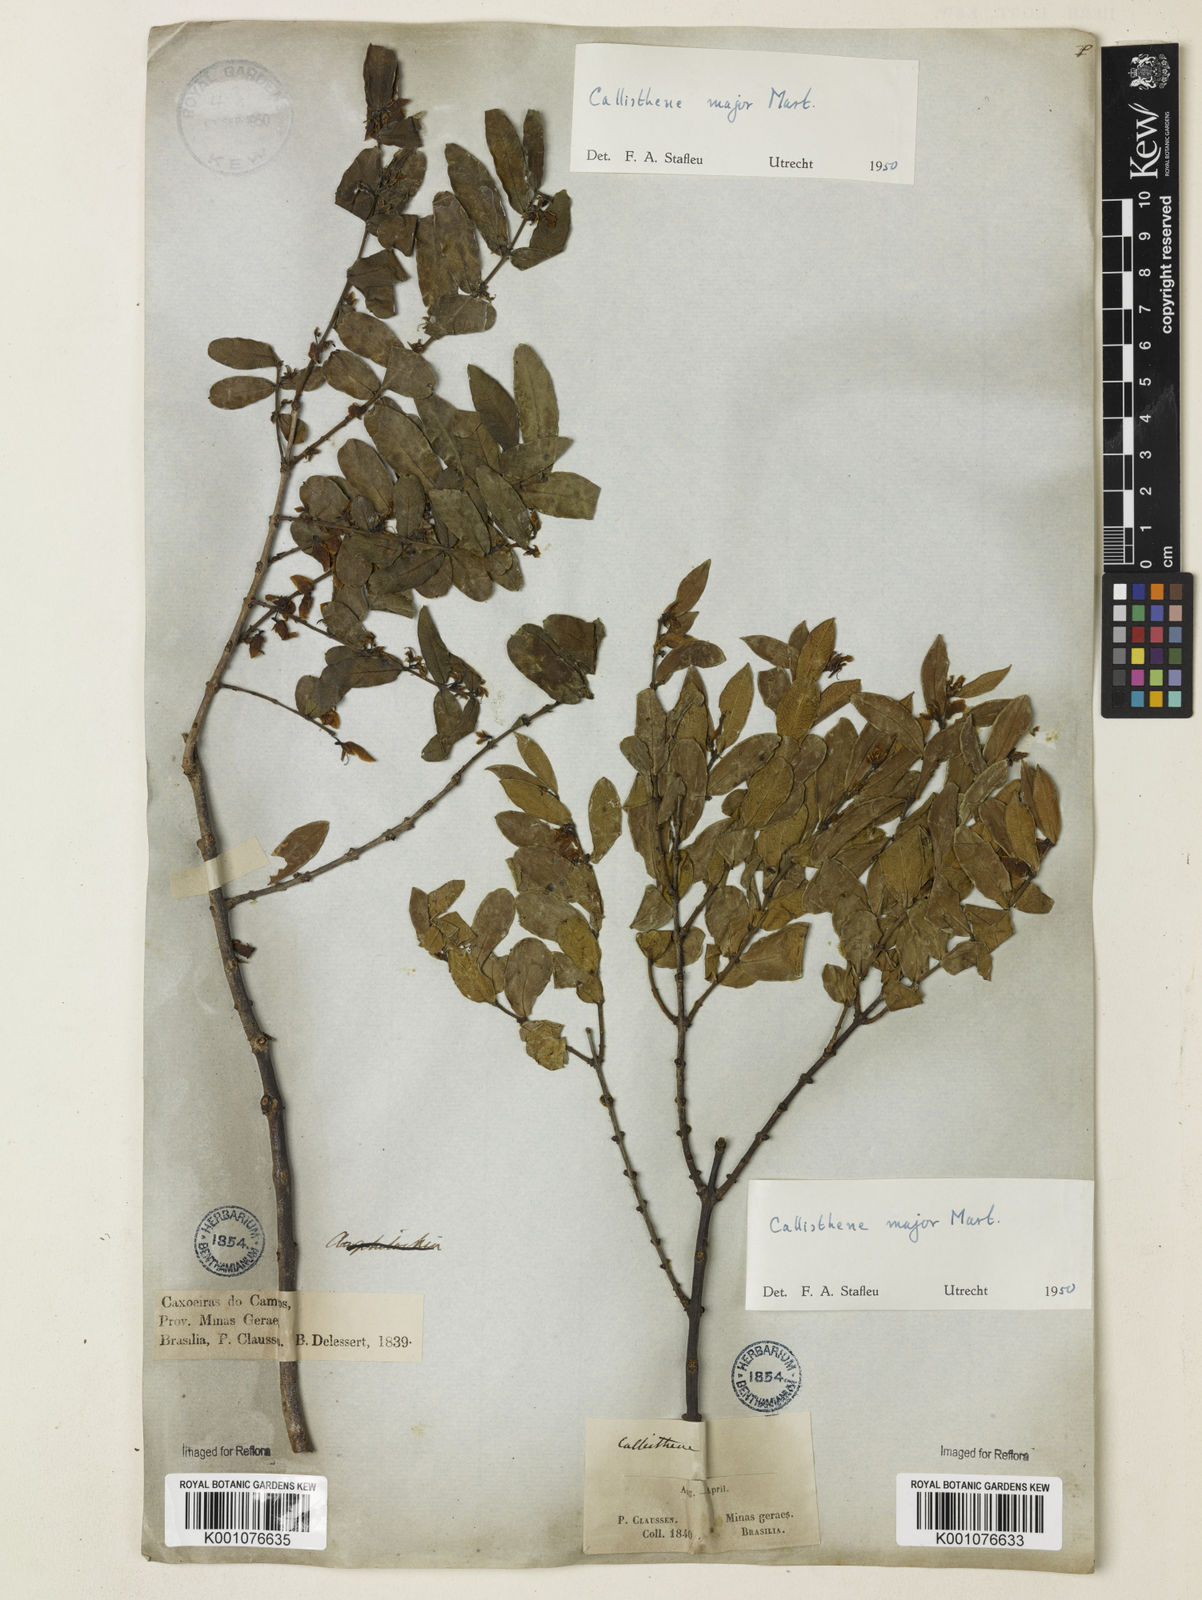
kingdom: Plantae
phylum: Tracheophyta
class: Magnoliopsida
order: Myrtales
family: Vochysiaceae
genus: Callisthene
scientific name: Callisthene major
